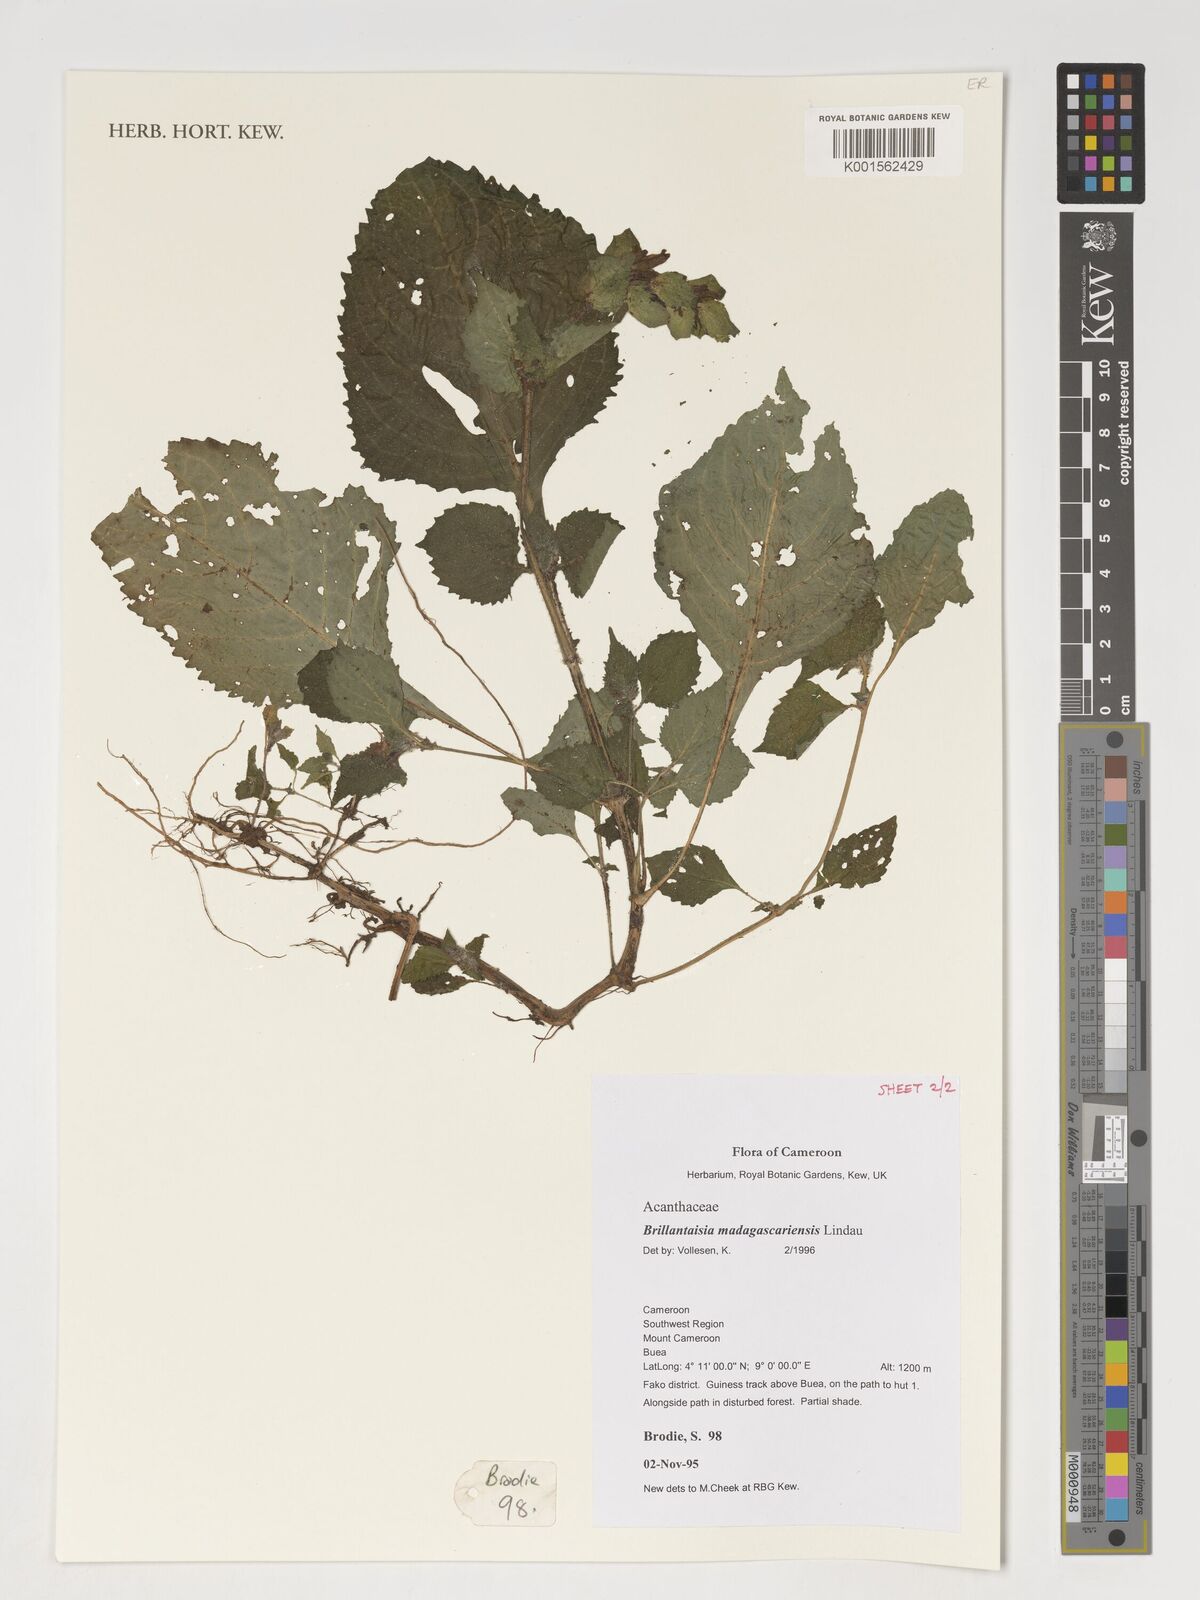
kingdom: Plantae
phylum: Tracheophyta
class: Magnoliopsida
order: Lamiales
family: Acanthaceae
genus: Brillantaisia
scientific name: Brillantaisia madagascariensis
